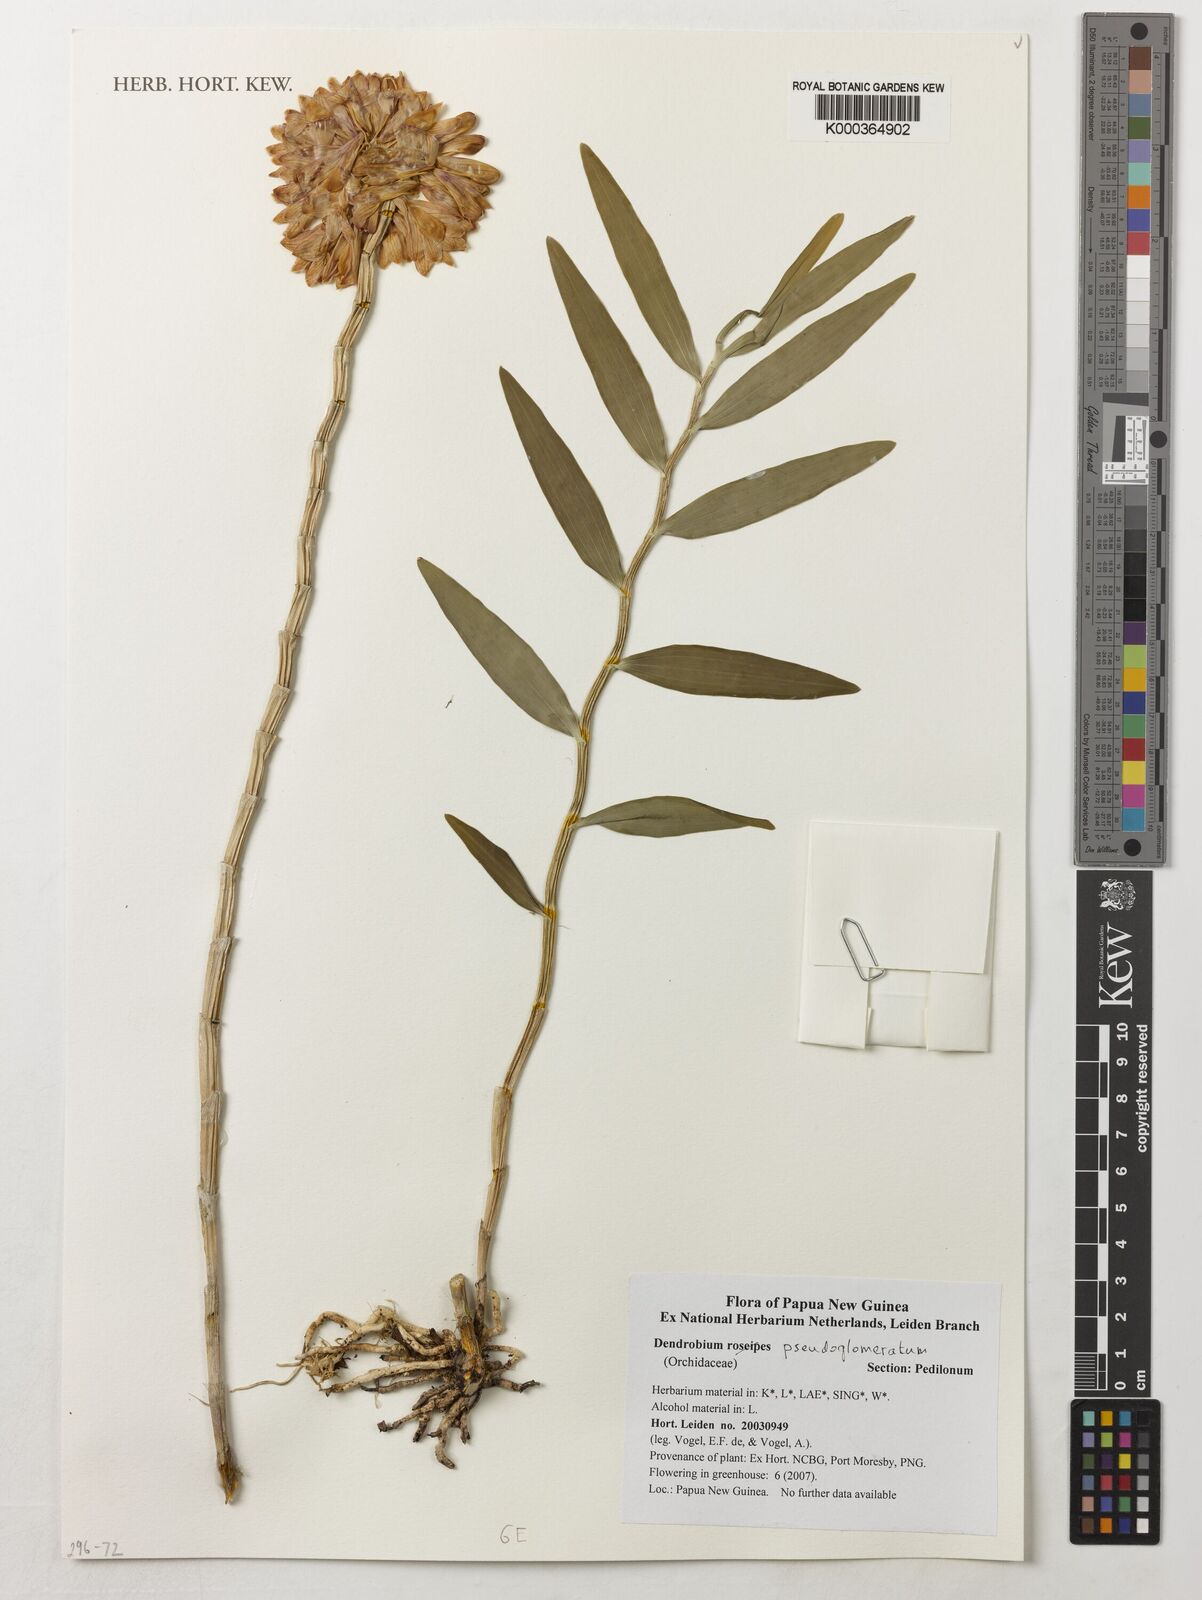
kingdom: Plantae
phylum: Tracheophyta
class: Liliopsida
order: Asparagales
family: Orchidaceae
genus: Dendrobium
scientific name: Dendrobium roseipes
